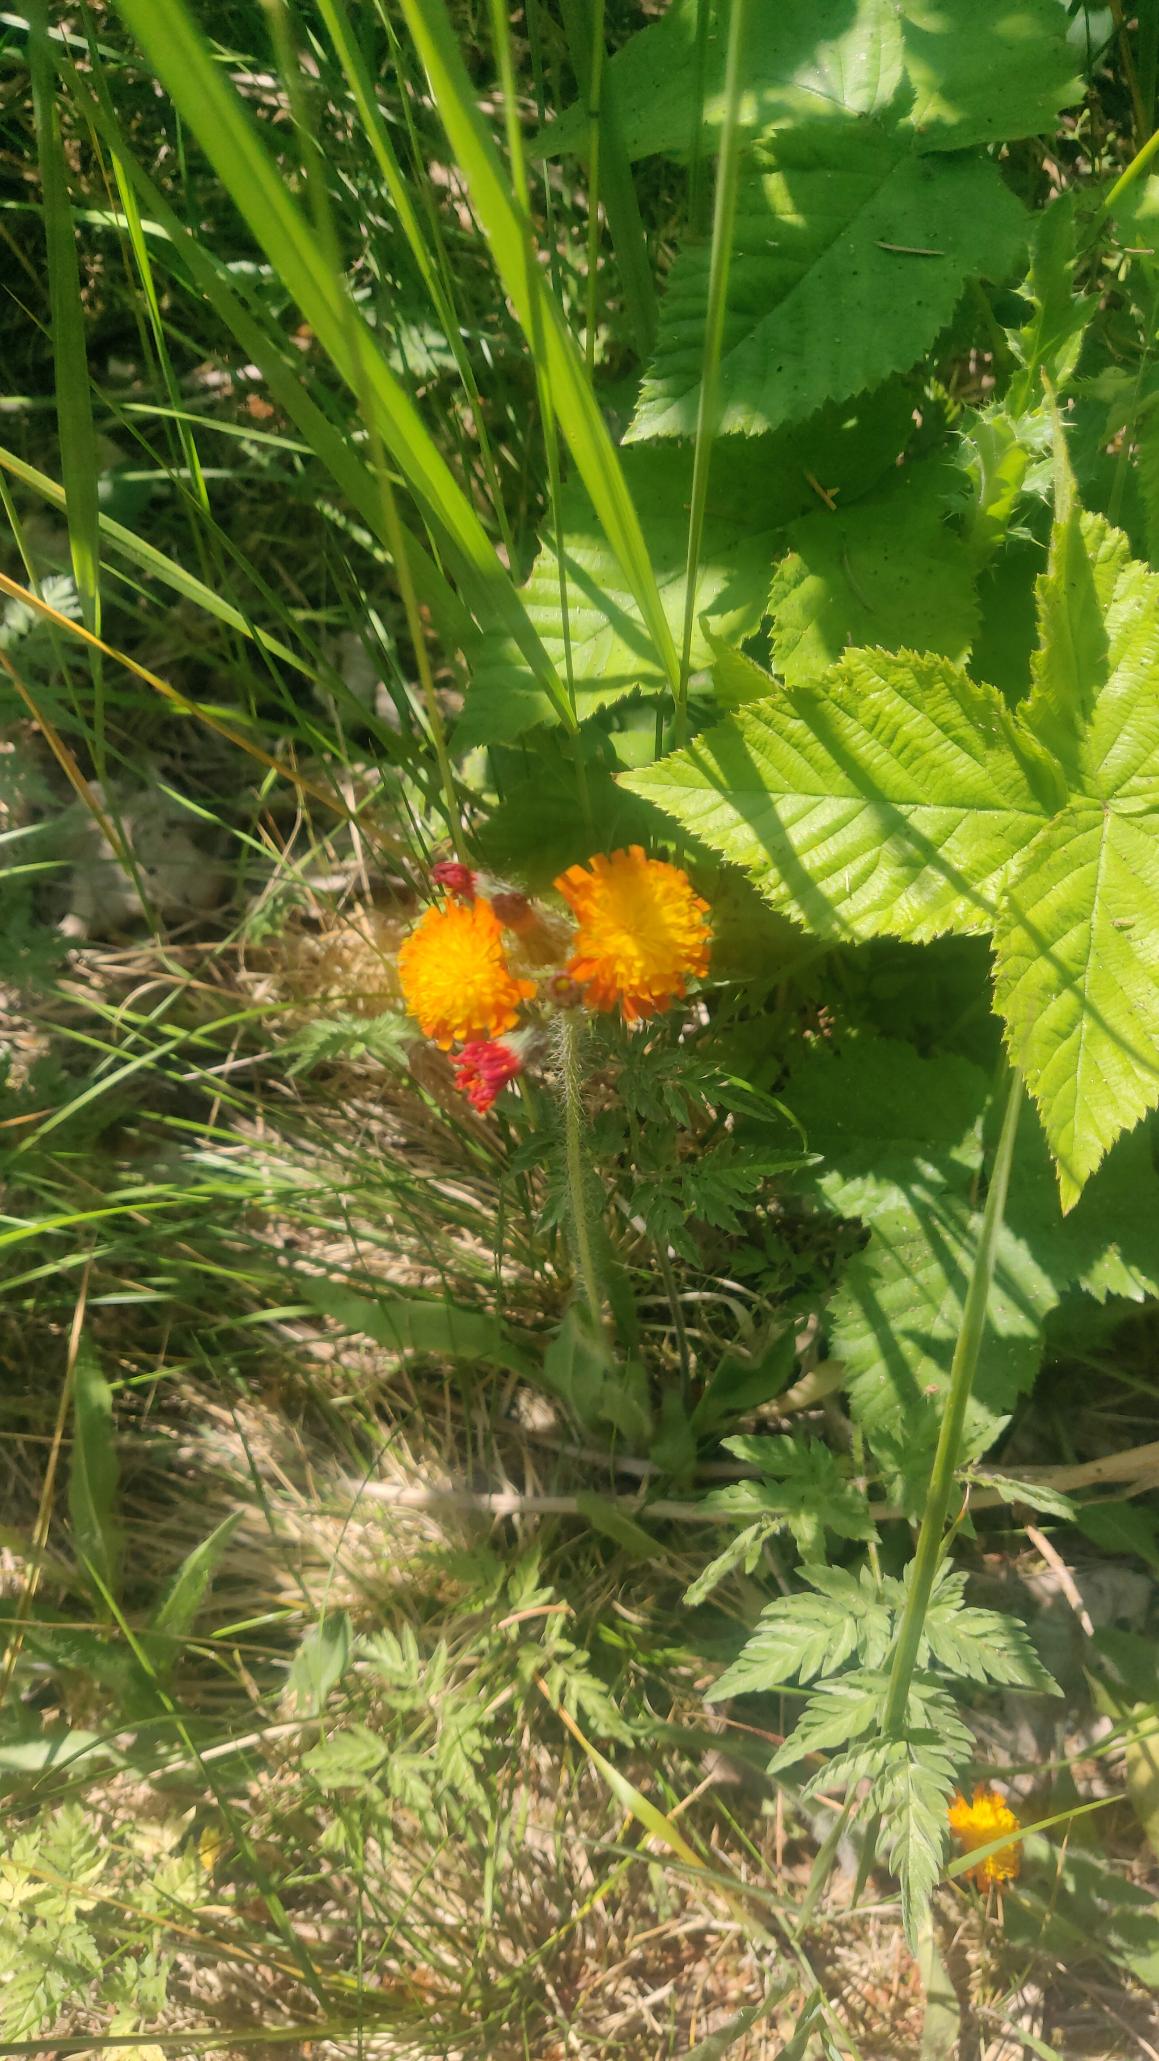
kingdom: Plantae
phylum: Tracheophyta
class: Magnoliopsida
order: Asterales
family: Asteraceae
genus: Pilosella
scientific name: Pilosella aurantiaca
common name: Pomerans-høgeurt
